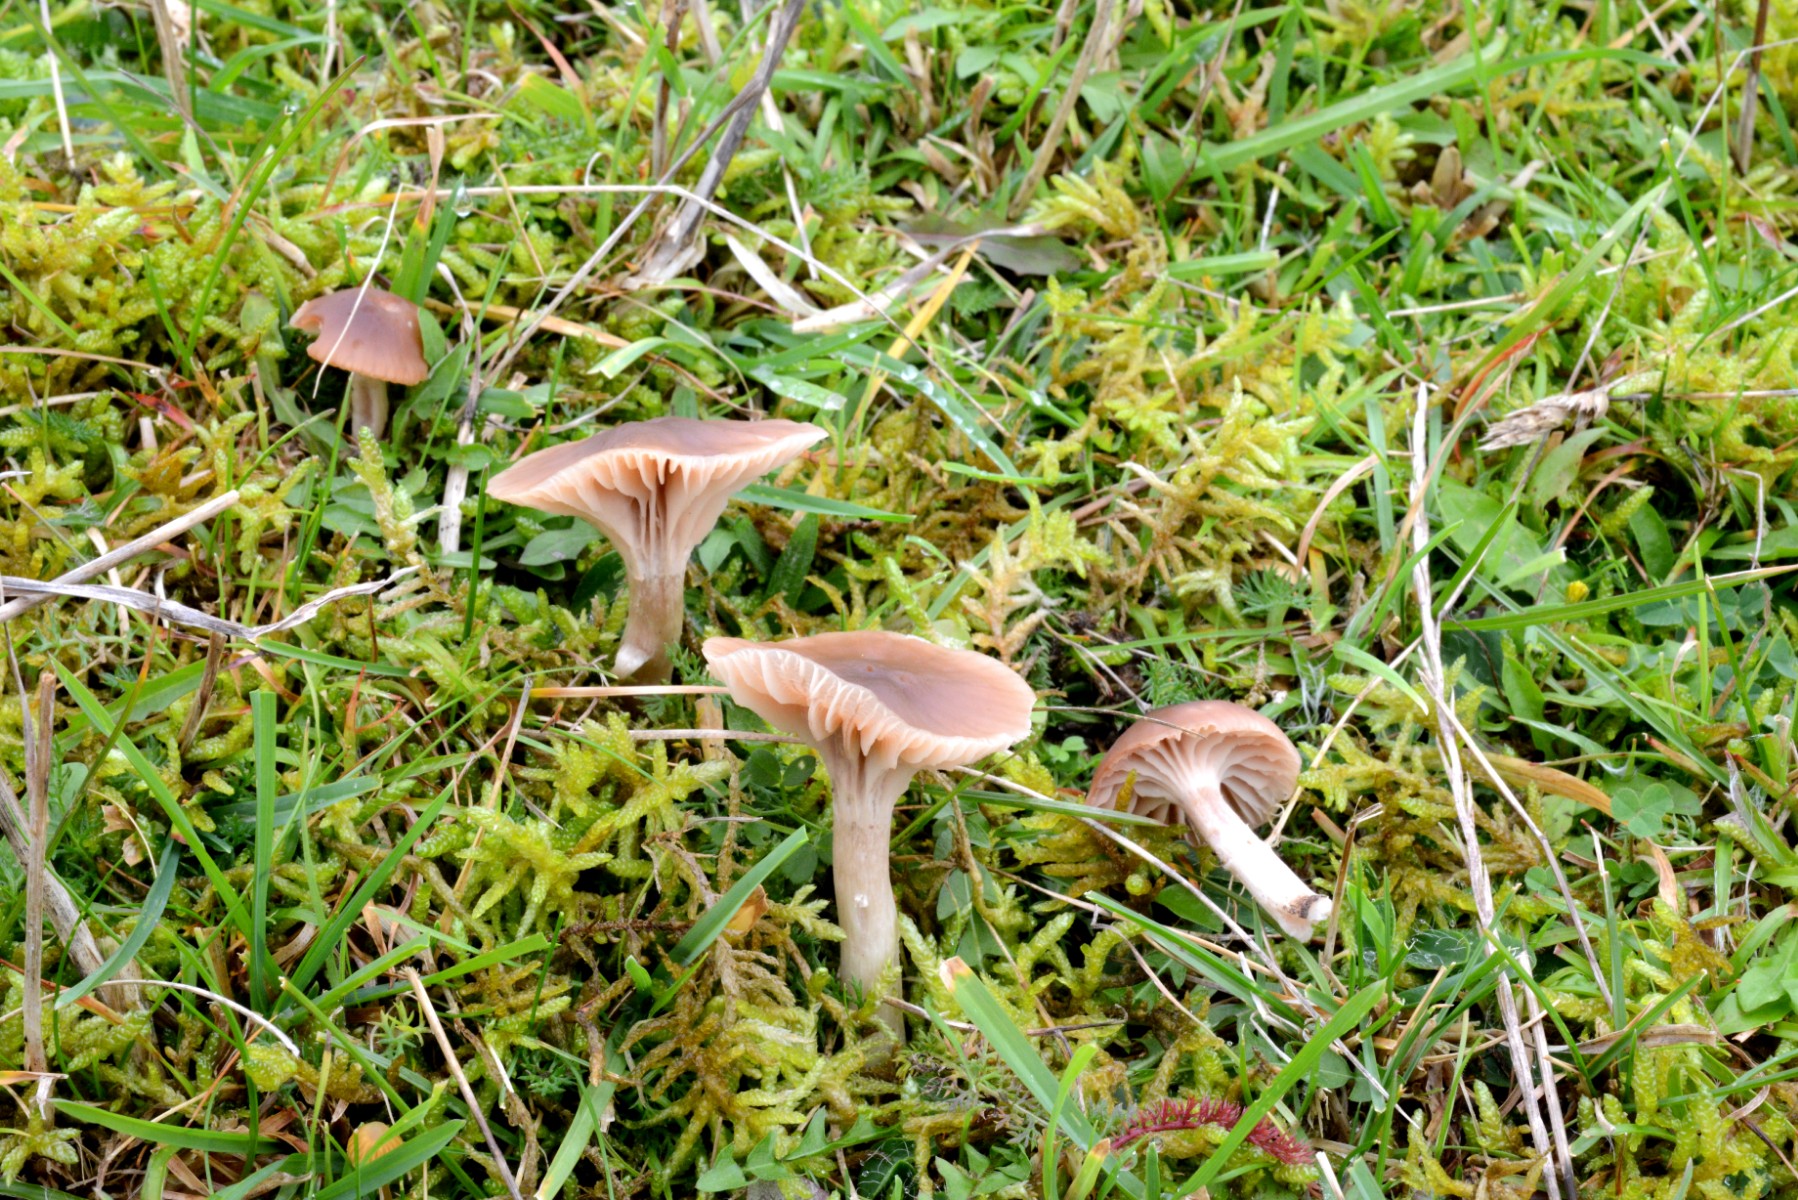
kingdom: Fungi
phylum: Basidiomycota
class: Agaricomycetes
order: Agaricales
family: Hygrophoraceae
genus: Cuphophyllus
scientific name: Cuphophyllus colemannianus
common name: rødbrun vokshat
